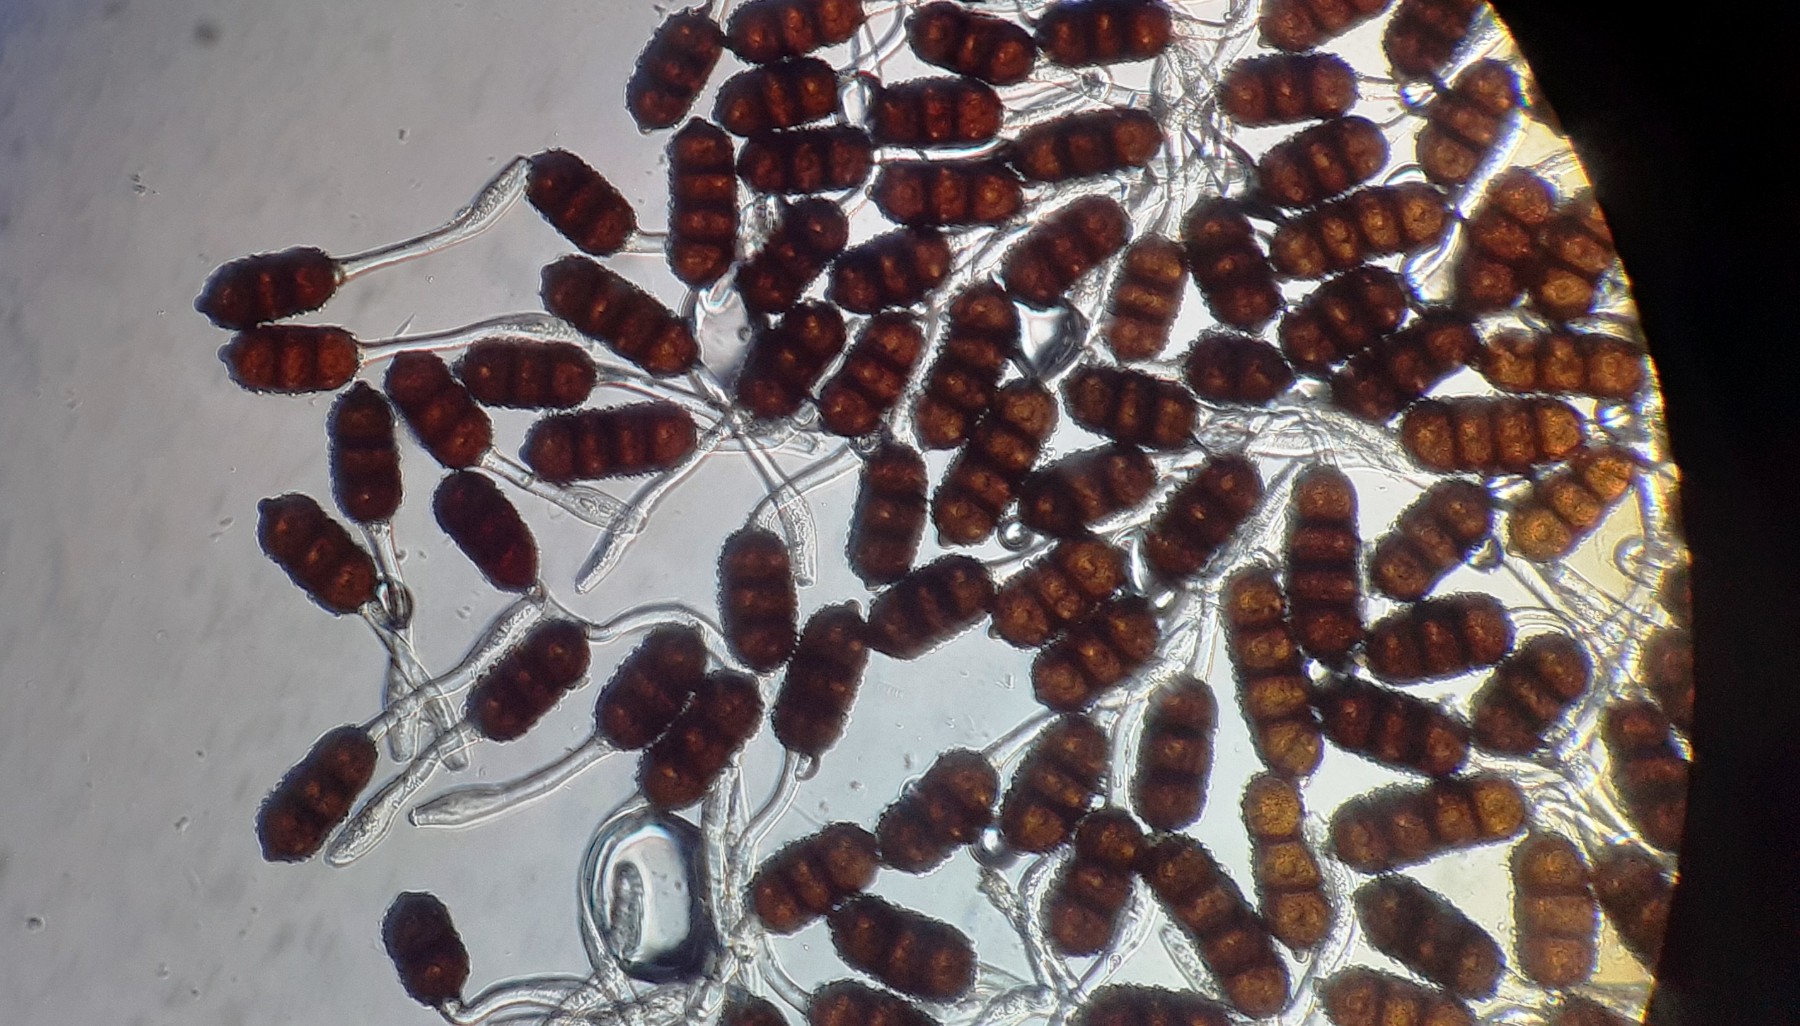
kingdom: Fungi
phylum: Basidiomycota
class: Pucciniomycetes
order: Pucciniales
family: Phragmidiaceae
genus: Phragmidium
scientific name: Phragmidium violaceum
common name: violet flercellerust
